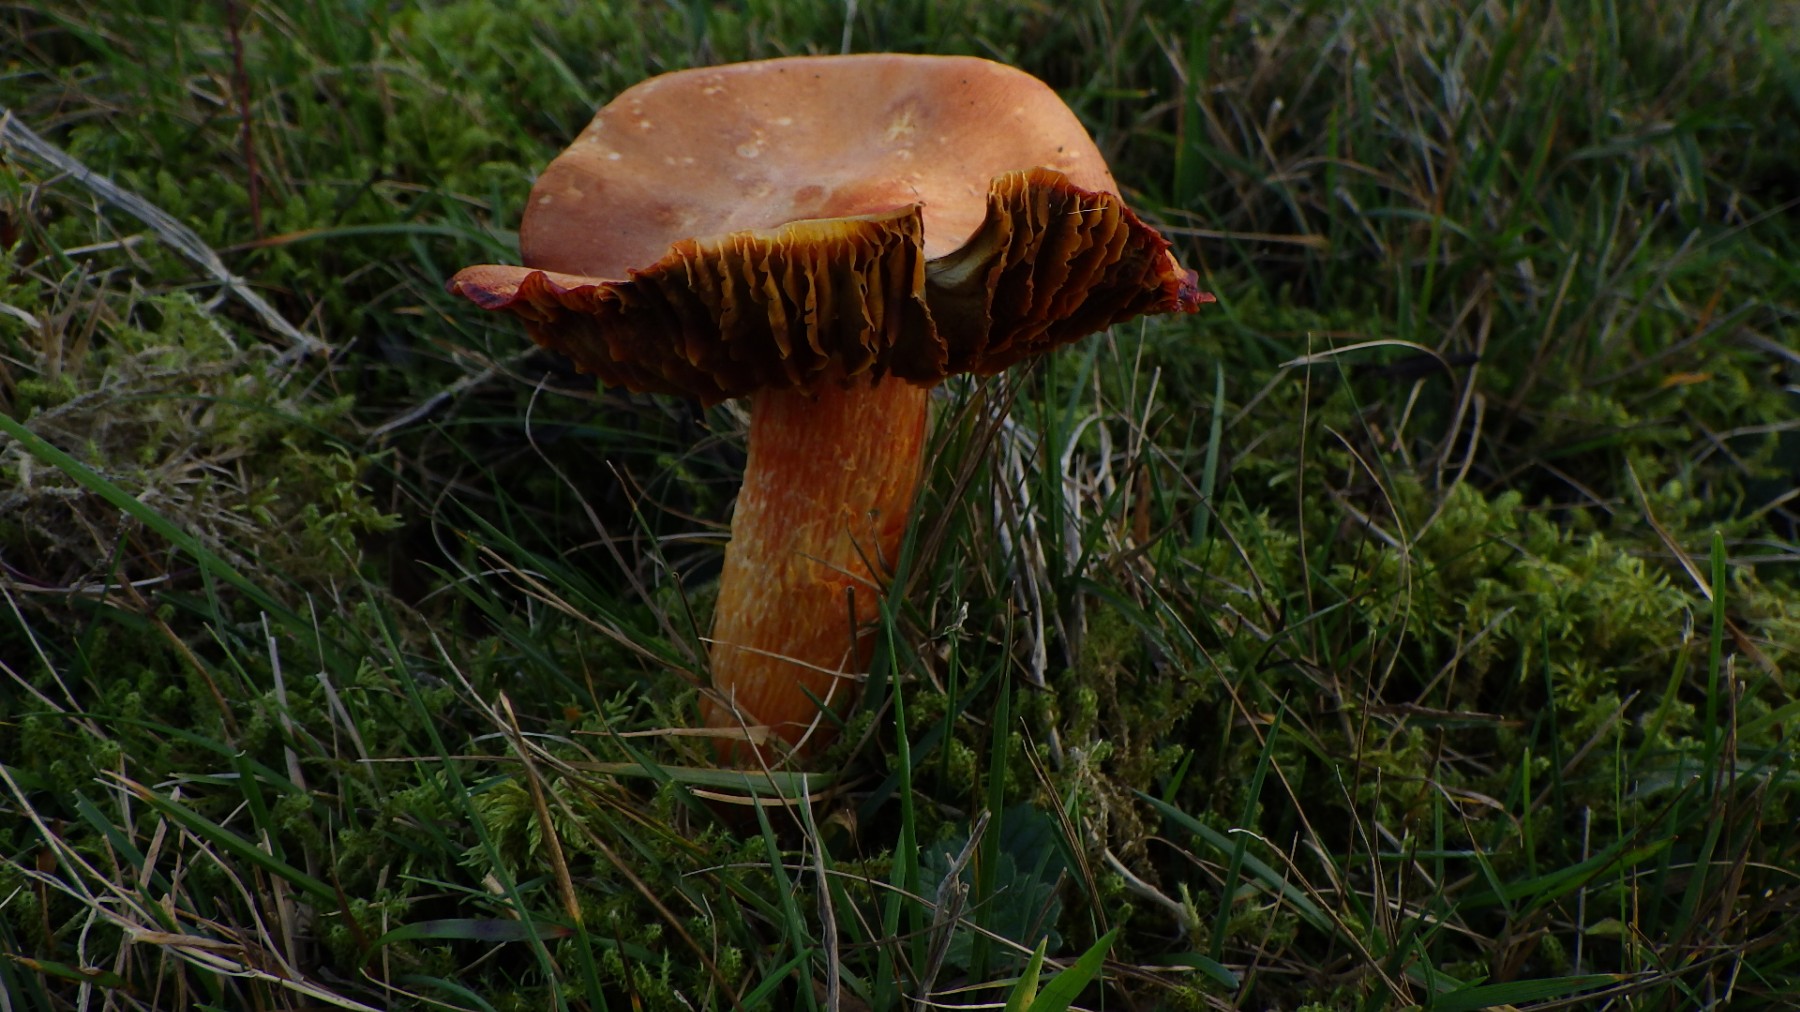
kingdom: Fungi
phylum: Basidiomycota
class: Agaricomycetes
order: Agaricales
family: Hygrophoraceae
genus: Hygrocybe
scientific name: Hygrocybe punicea
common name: skarlagen-vokshat
